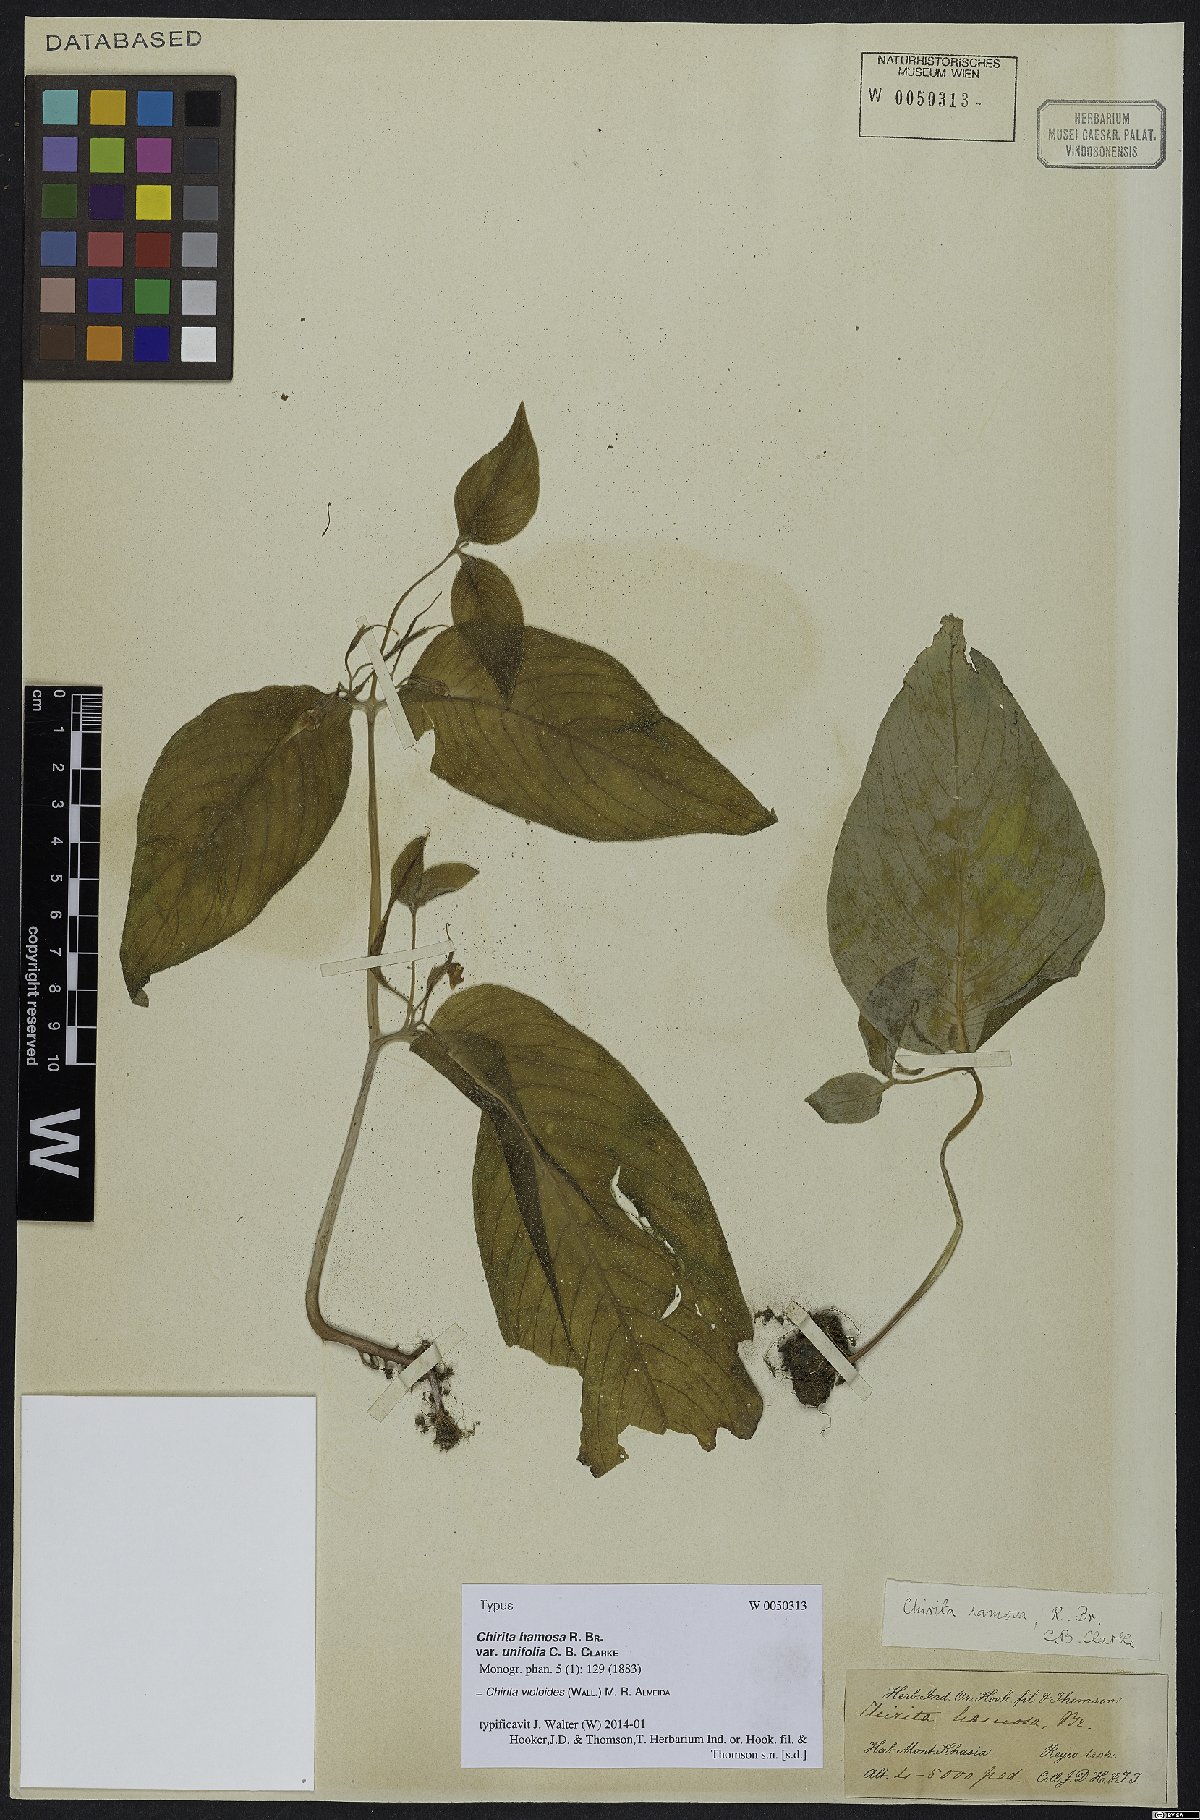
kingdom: Plantae
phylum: Tracheophyta
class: Magnoliopsida
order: Lamiales
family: Gesneriaceae
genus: Platystemma
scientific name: Platystemma violoides
